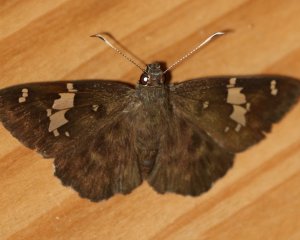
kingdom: Animalia
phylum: Arthropoda
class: Insecta
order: Lepidoptera
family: Hesperiidae
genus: Celaenorrhinus
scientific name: Celaenorrhinus fritzgaertneri
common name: Fritzgaertner's Flat
